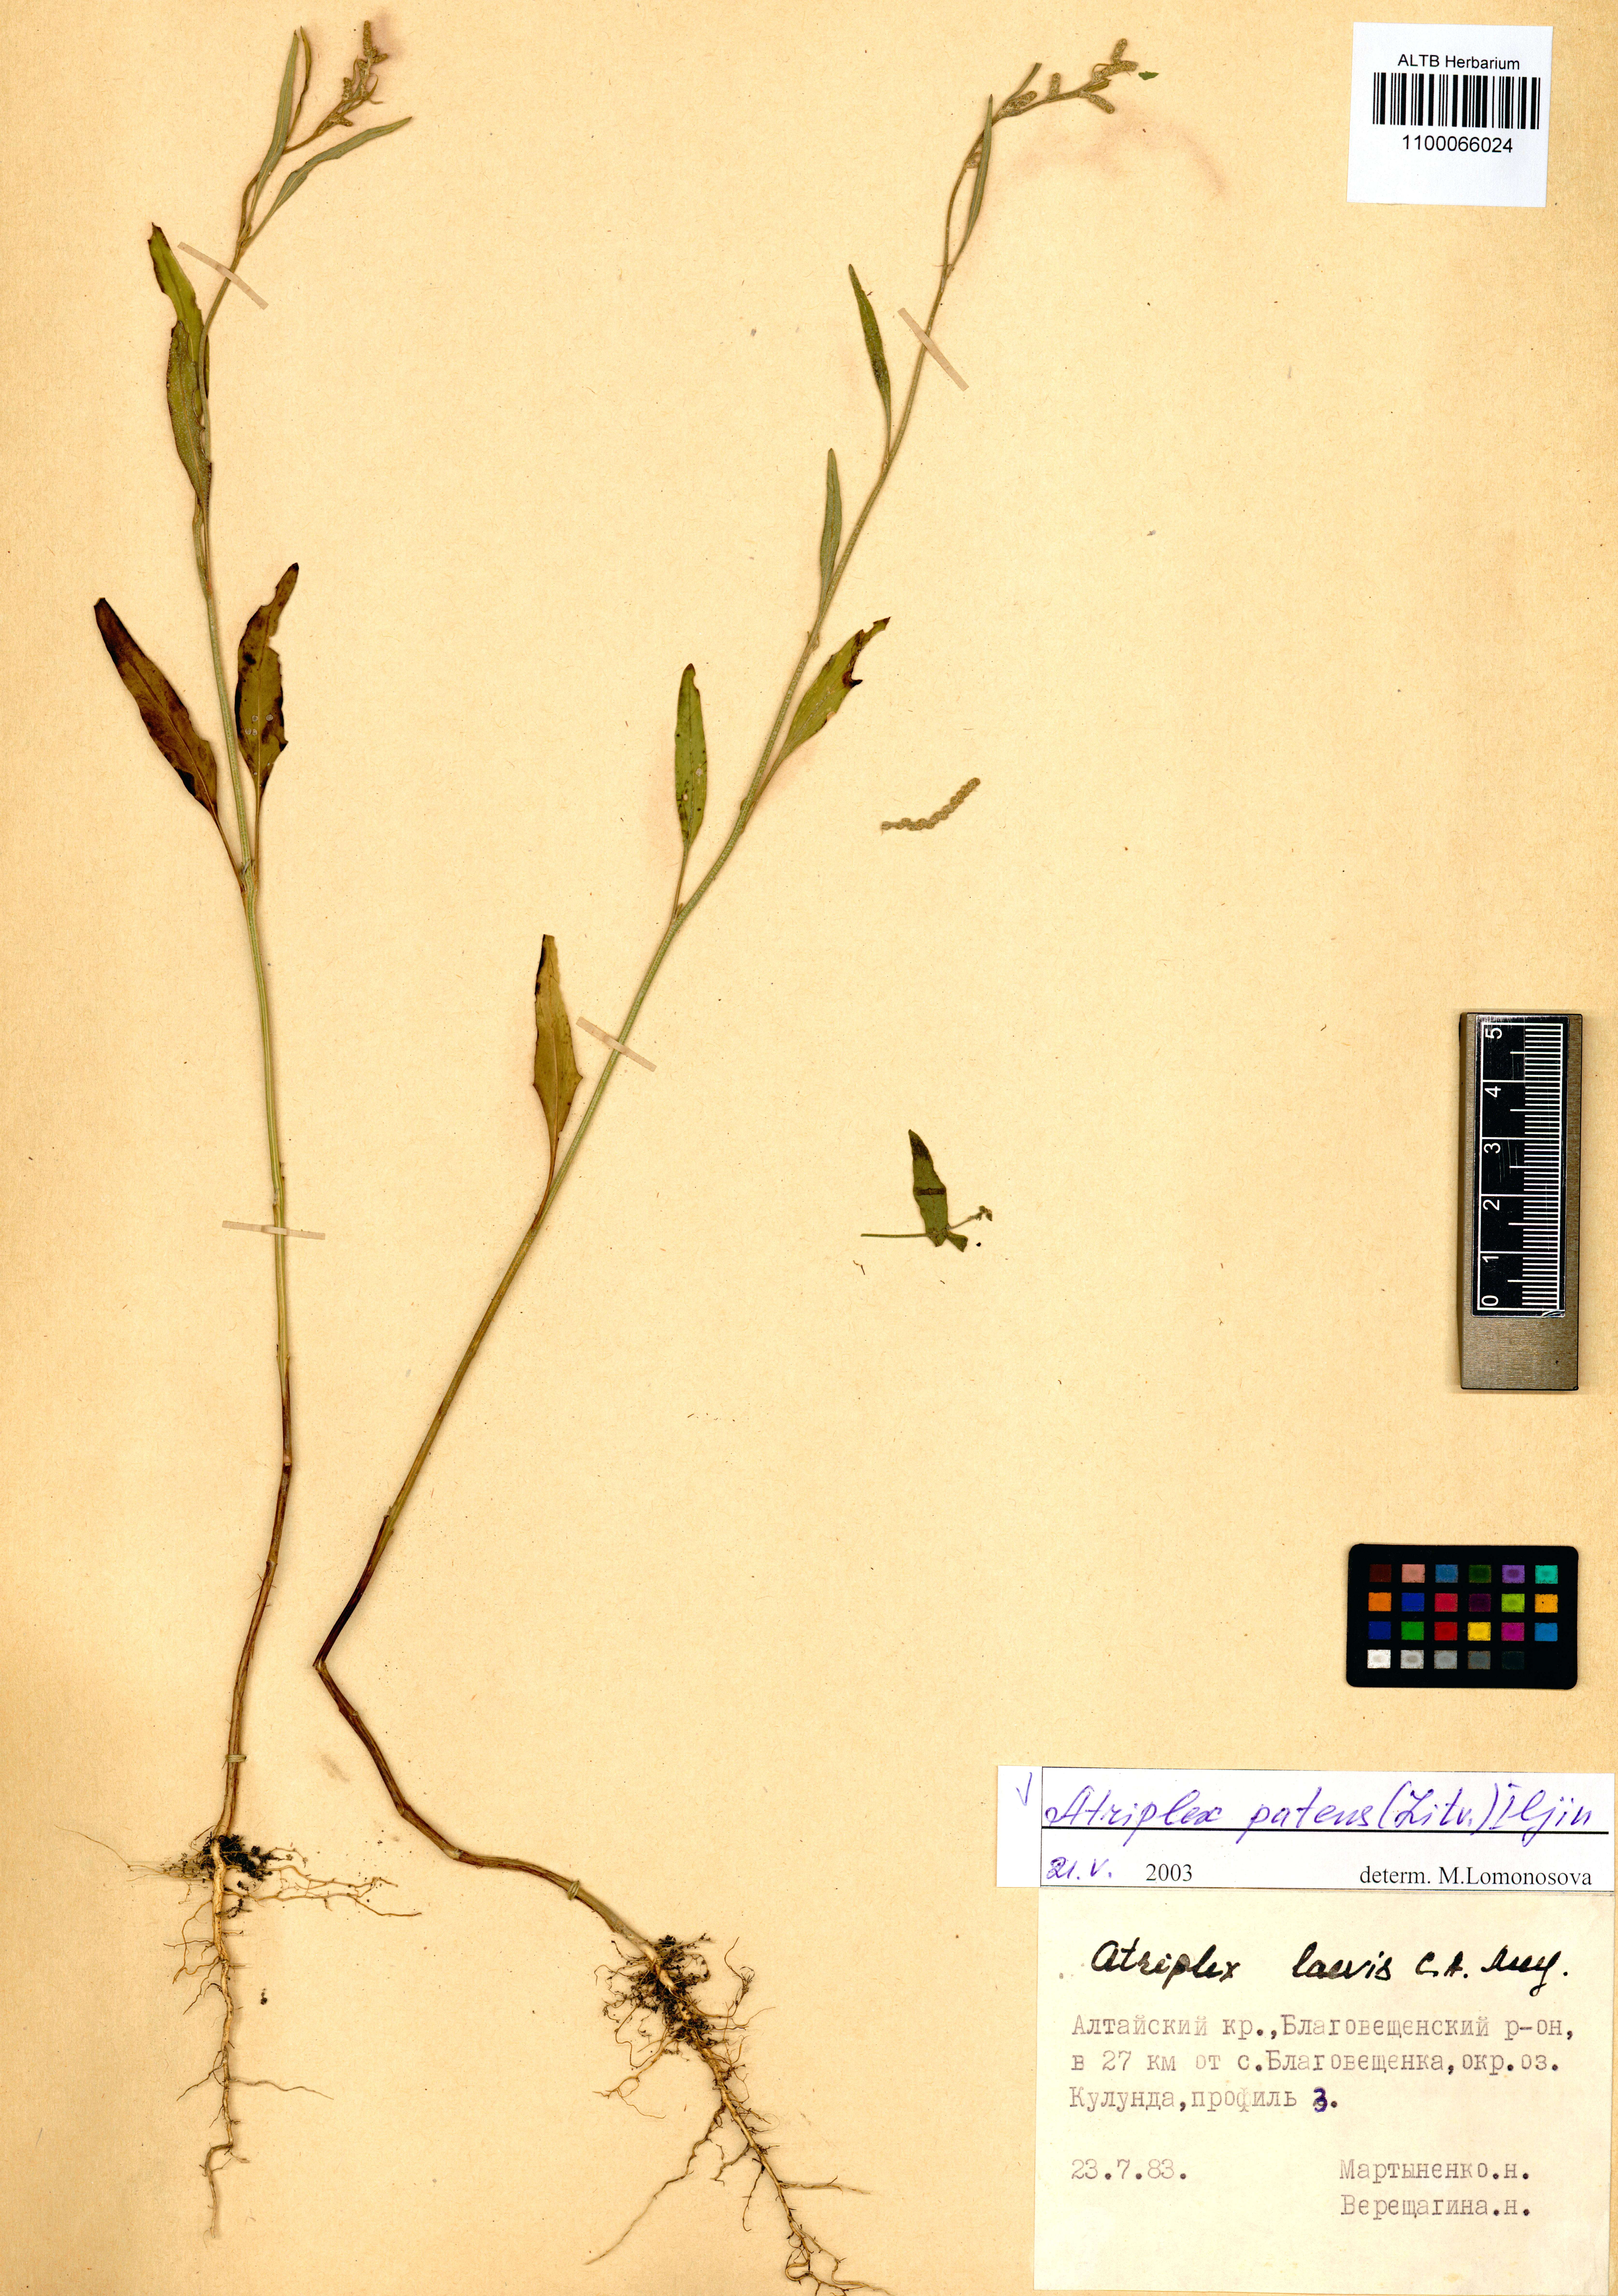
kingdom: Plantae
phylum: Tracheophyta
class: Magnoliopsida
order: Caryophyllales
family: Amaranthaceae
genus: Atriplex
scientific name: Atriplex patens
